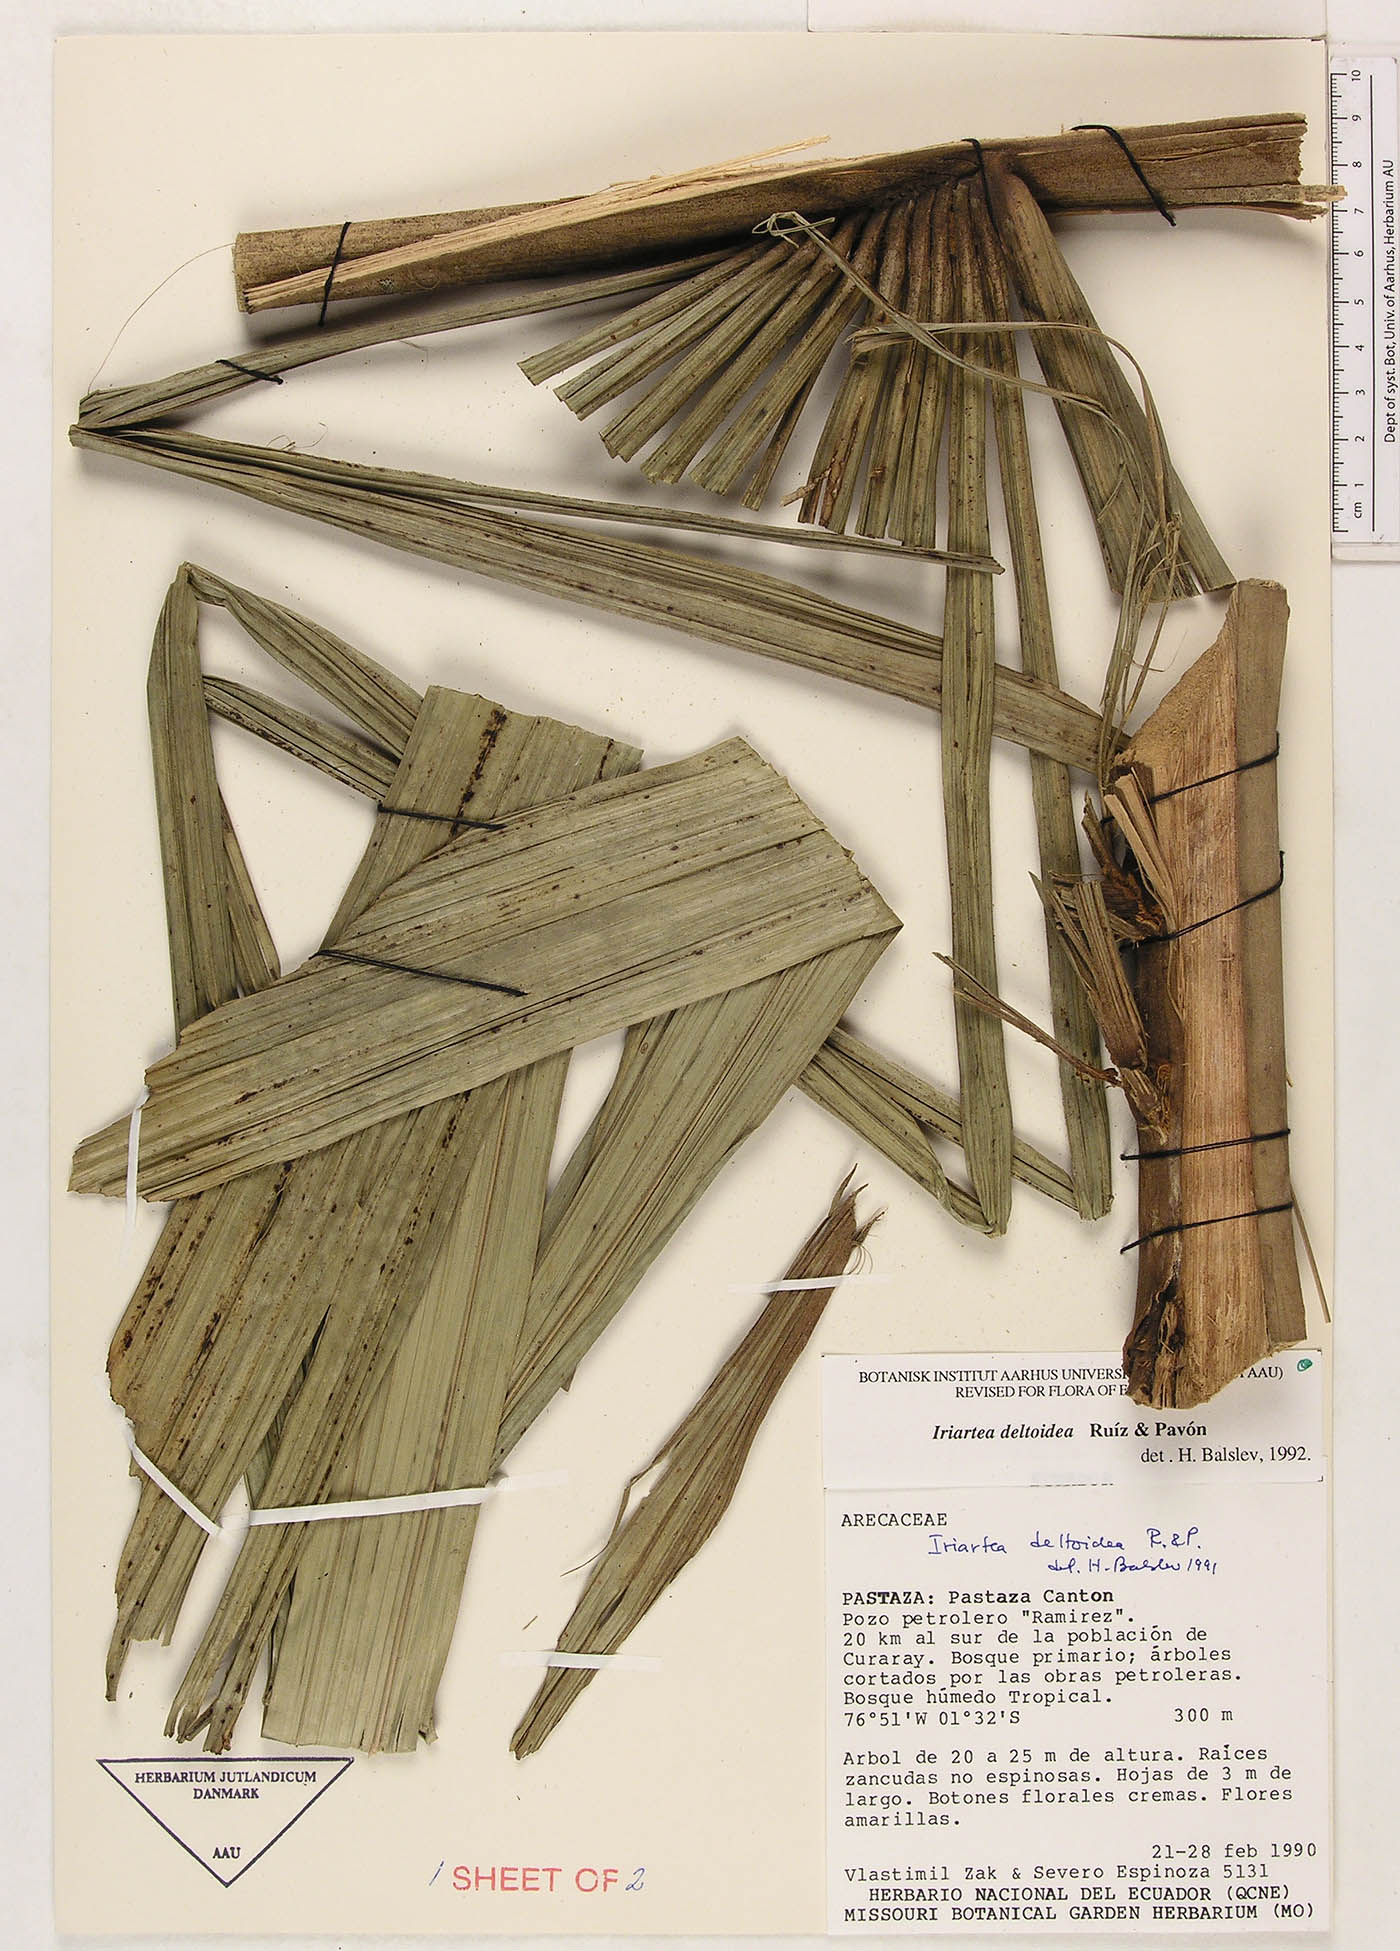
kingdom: Plantae
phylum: Tracheophyta
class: Liliopsida
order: Arecales
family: Arecaceae
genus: Iriartea
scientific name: Iriartea deltoidea
